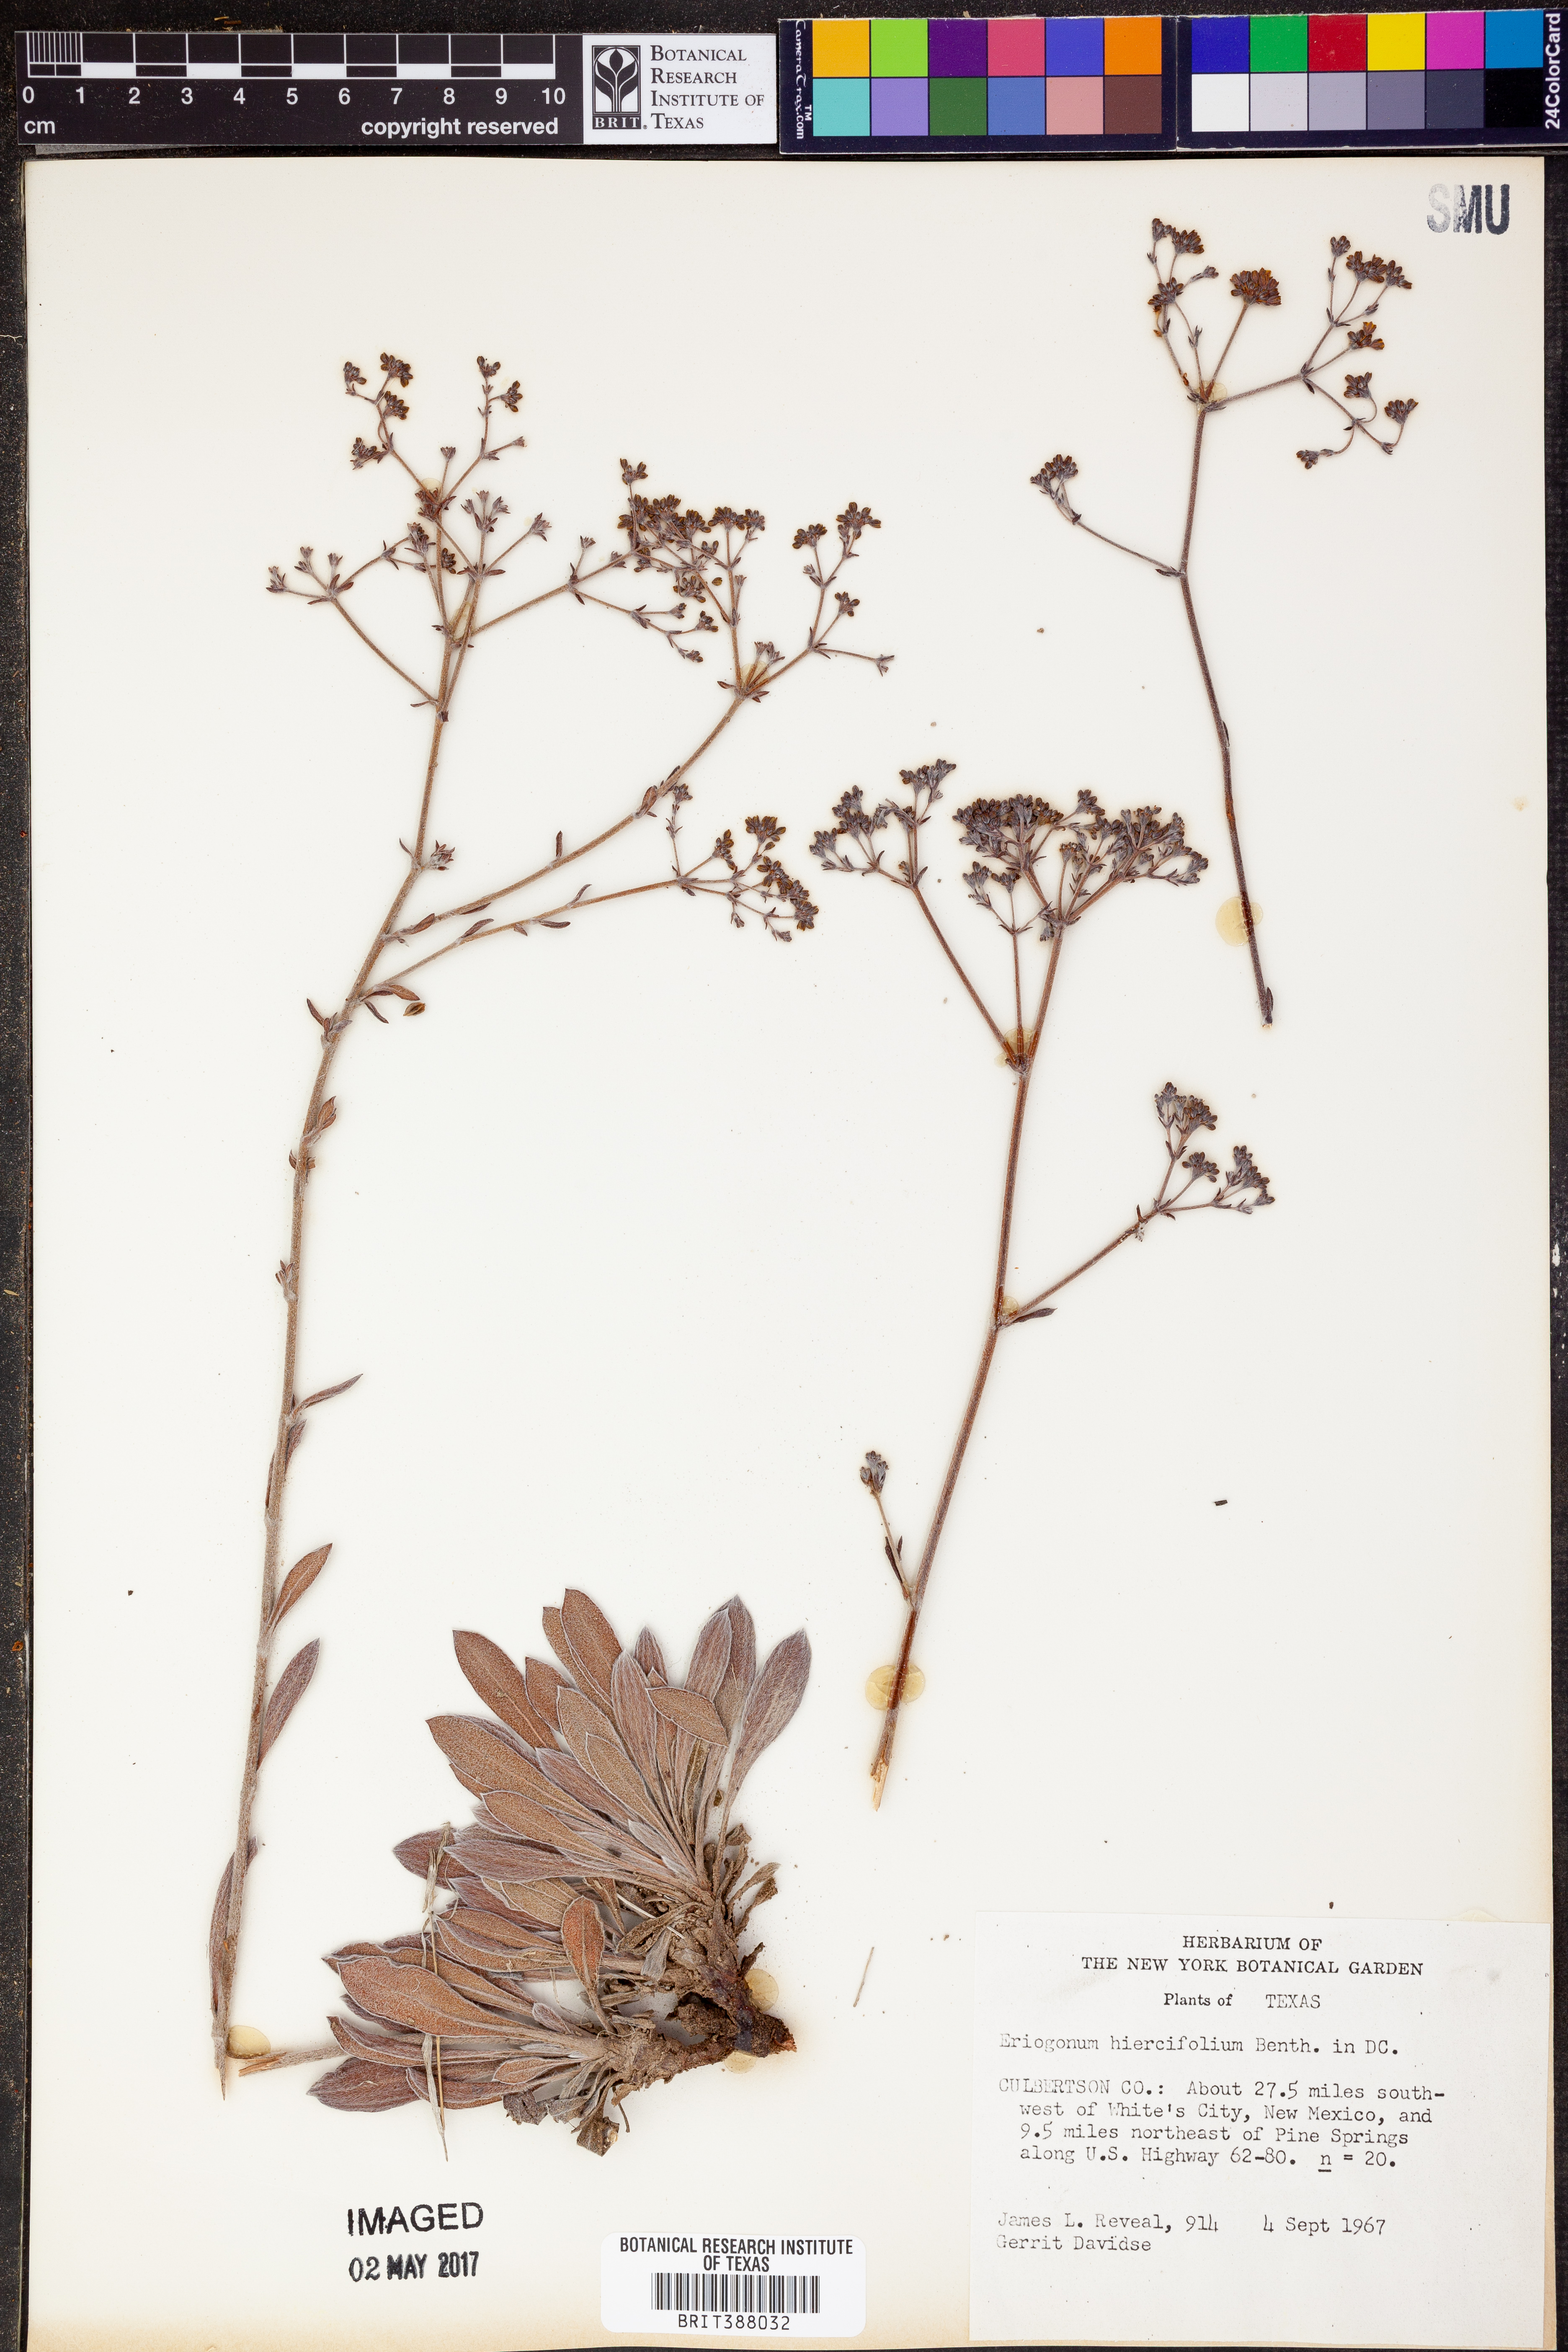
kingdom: Plantae
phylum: Tracheophyta
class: Magnoliopsida
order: Caryophyllales
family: Polygonaceae
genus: Eriogonum
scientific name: Eriogonum hieraciifolium
